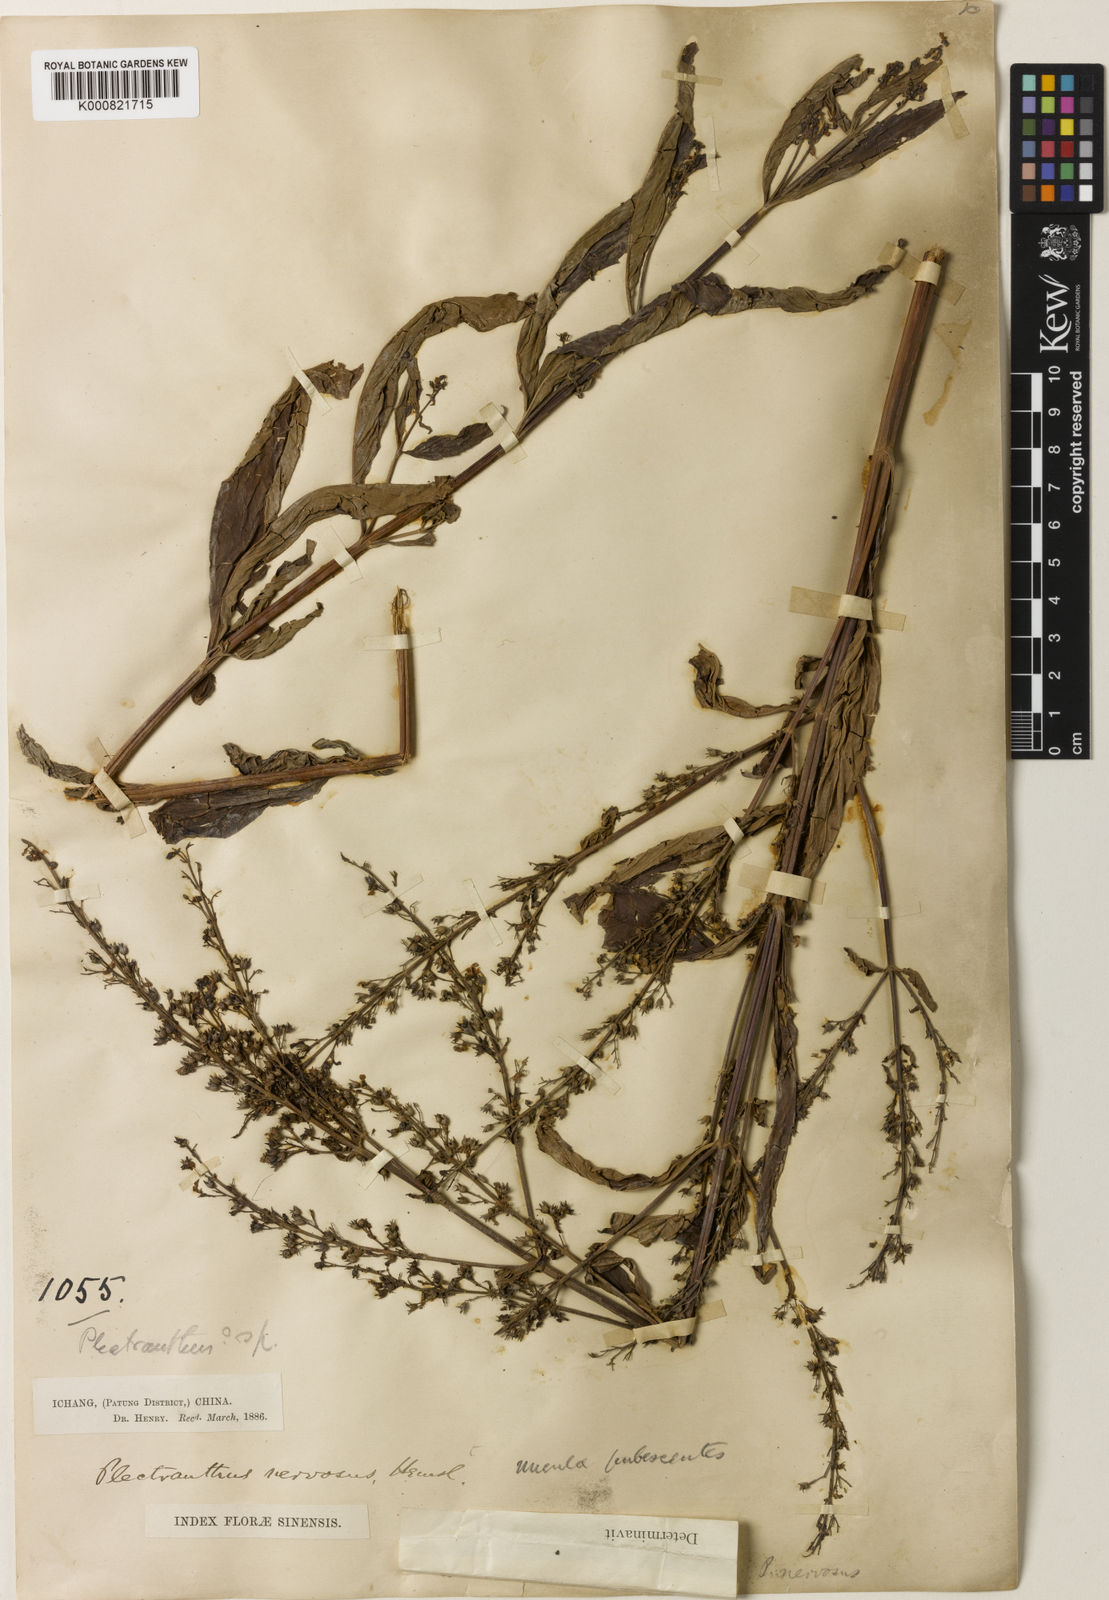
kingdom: Plantae
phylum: Tracheophyta
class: Magnoliopsida
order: Lamiales
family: Lamiaceae
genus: Isodon
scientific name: Isodon
